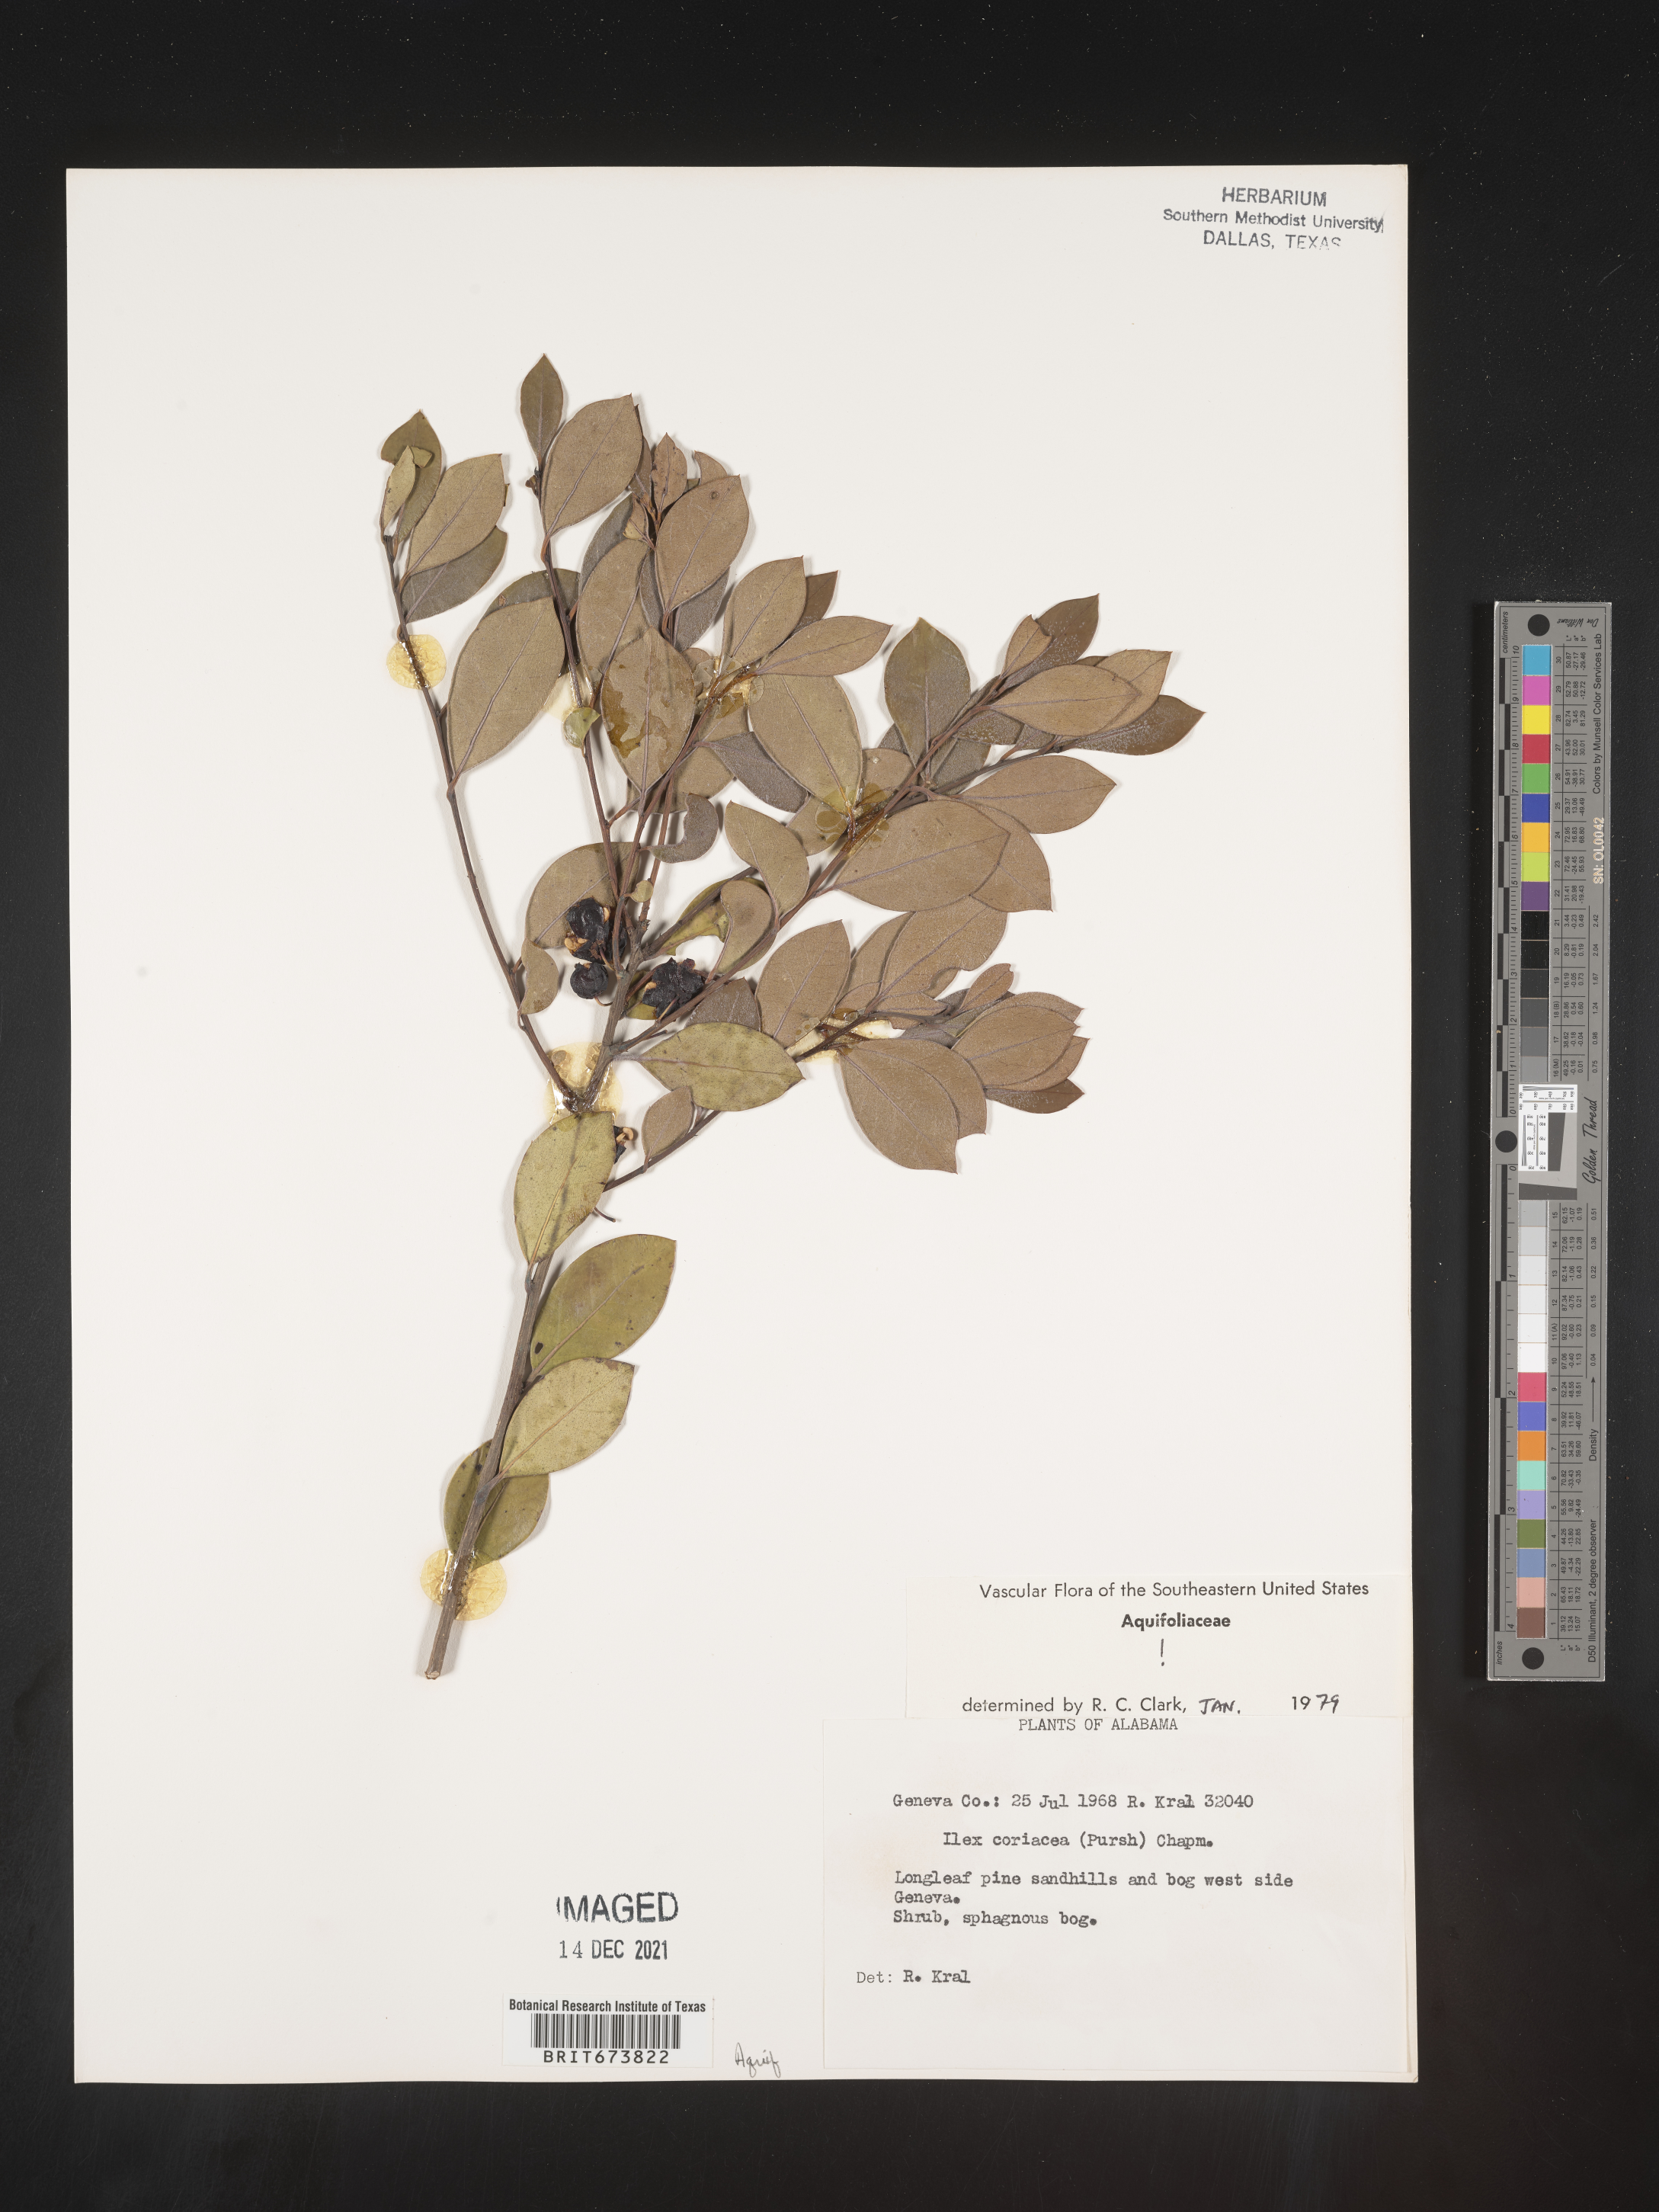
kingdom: Plantae
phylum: Tracheophyta
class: Magnoliopsida
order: Aquifoliales
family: Aquifoliaceae
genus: Ilex
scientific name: Ilex coriacea
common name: Sweet gallberry
